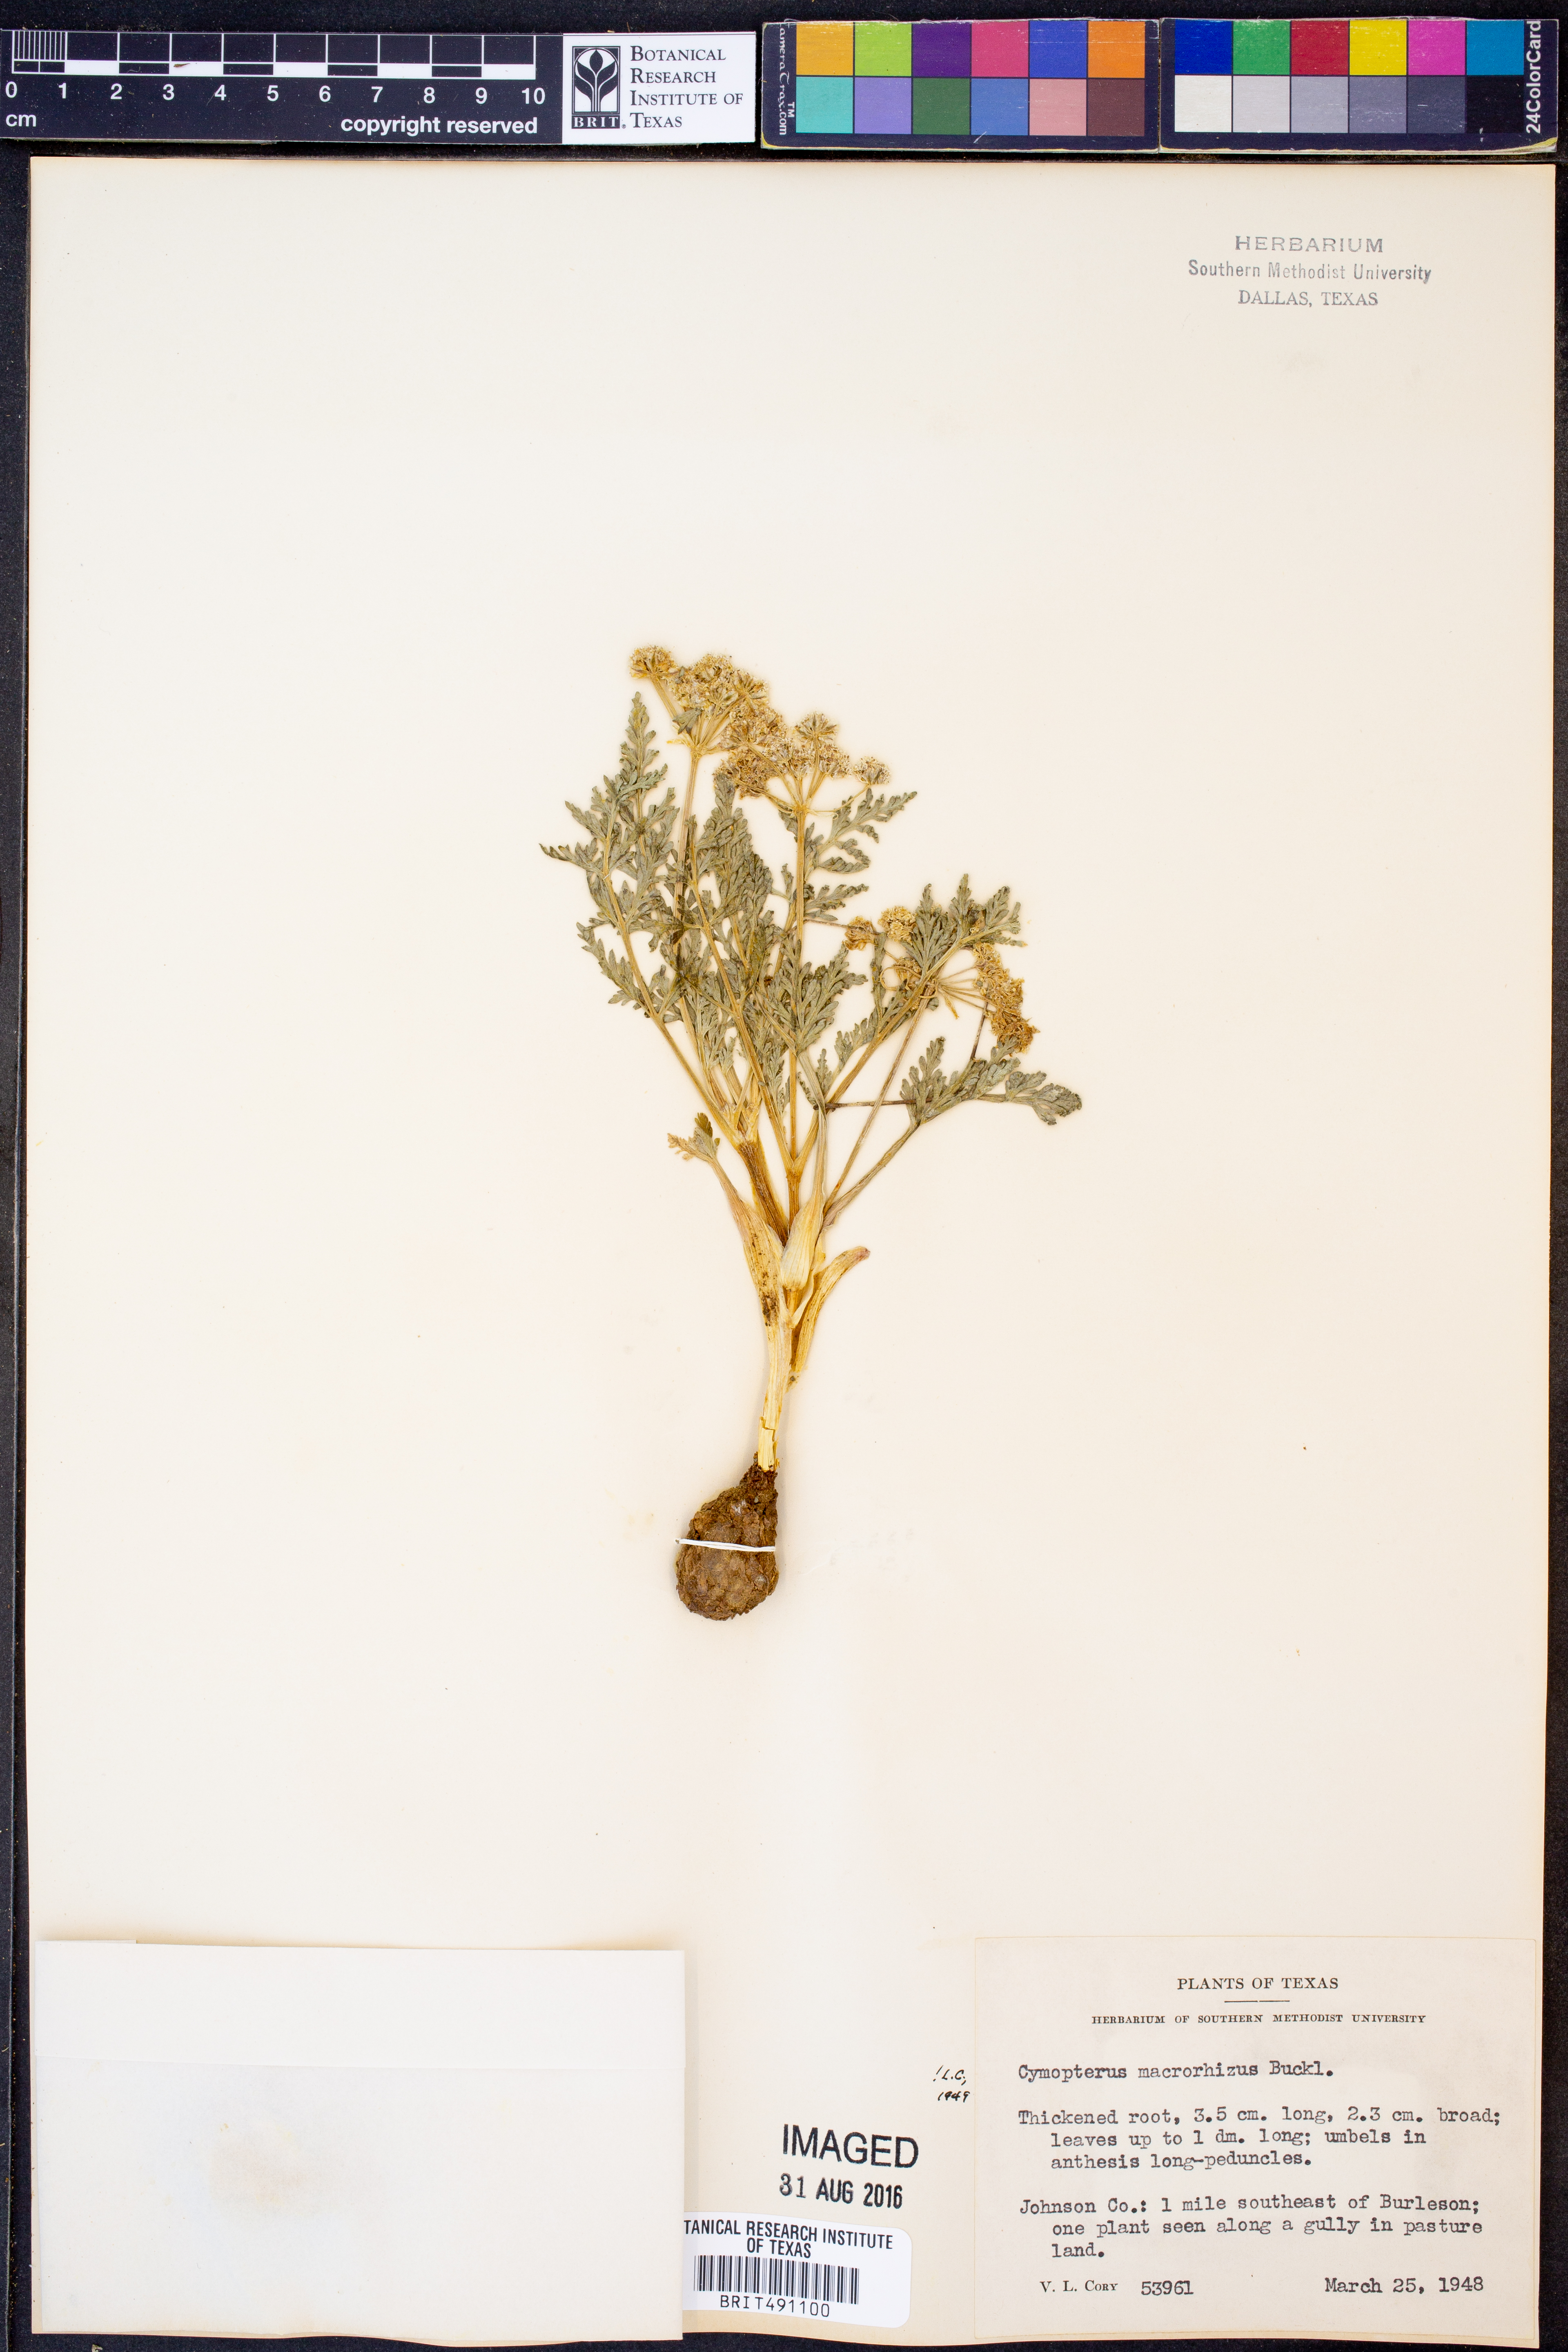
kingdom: Plantae
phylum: Tracheophyta
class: Magnoliopsida
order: Apiales
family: Apiaceae
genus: Vesper
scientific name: Vesper macrorhizus
